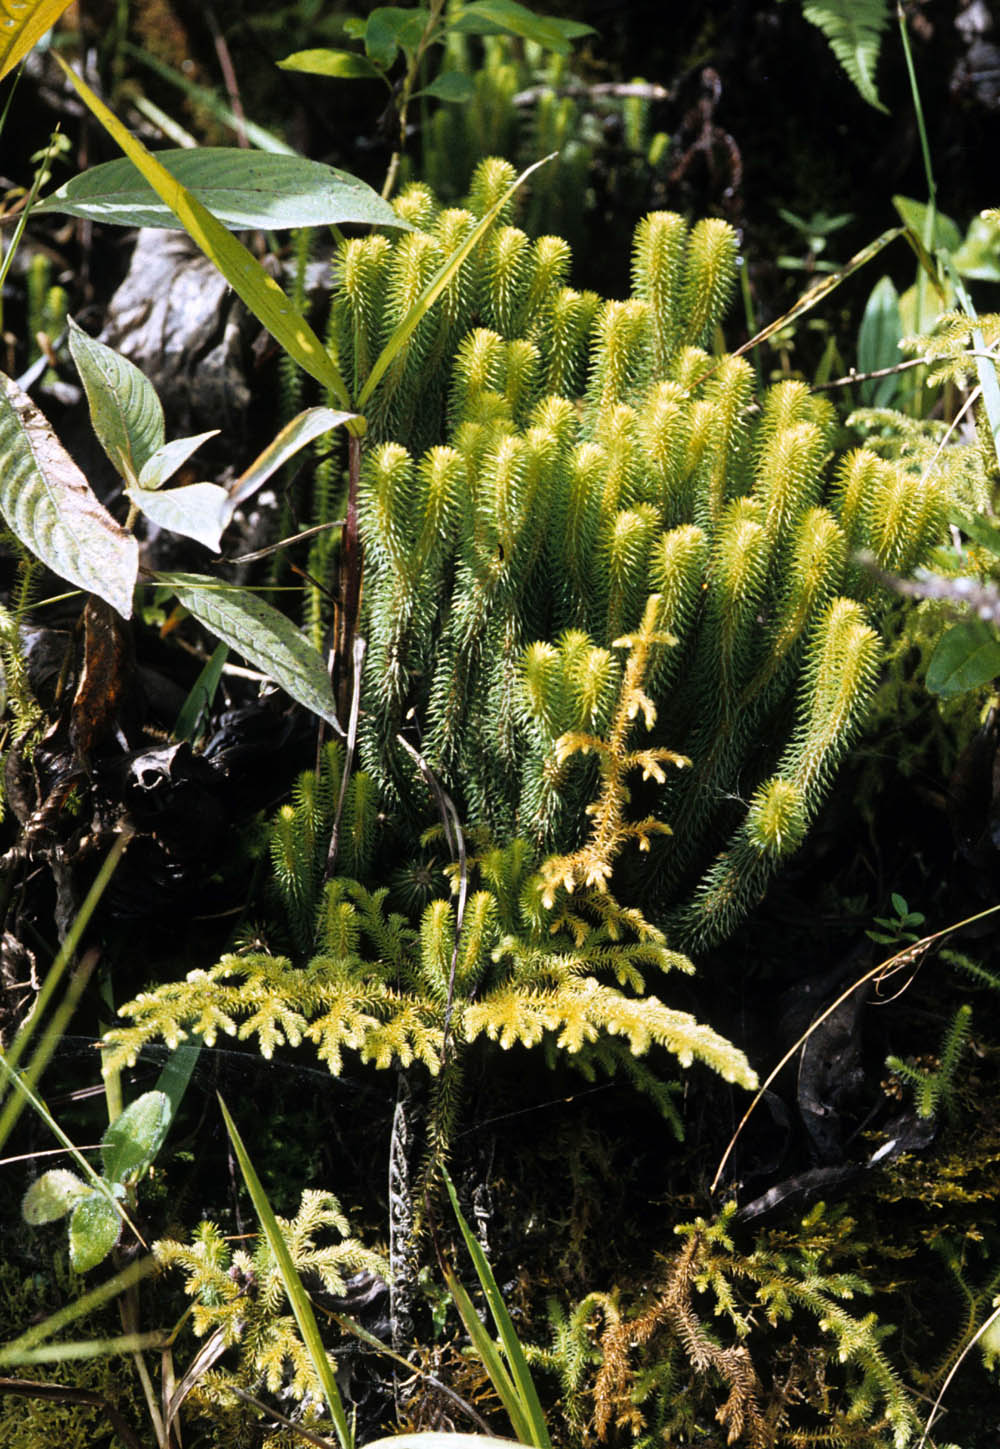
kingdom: Plantae
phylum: Tracheophyta
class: Lycopodiopsida
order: Lycopodiales
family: Lycopodiaceae
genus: Phlegmariurus
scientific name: Phlegmariurus acifolius
